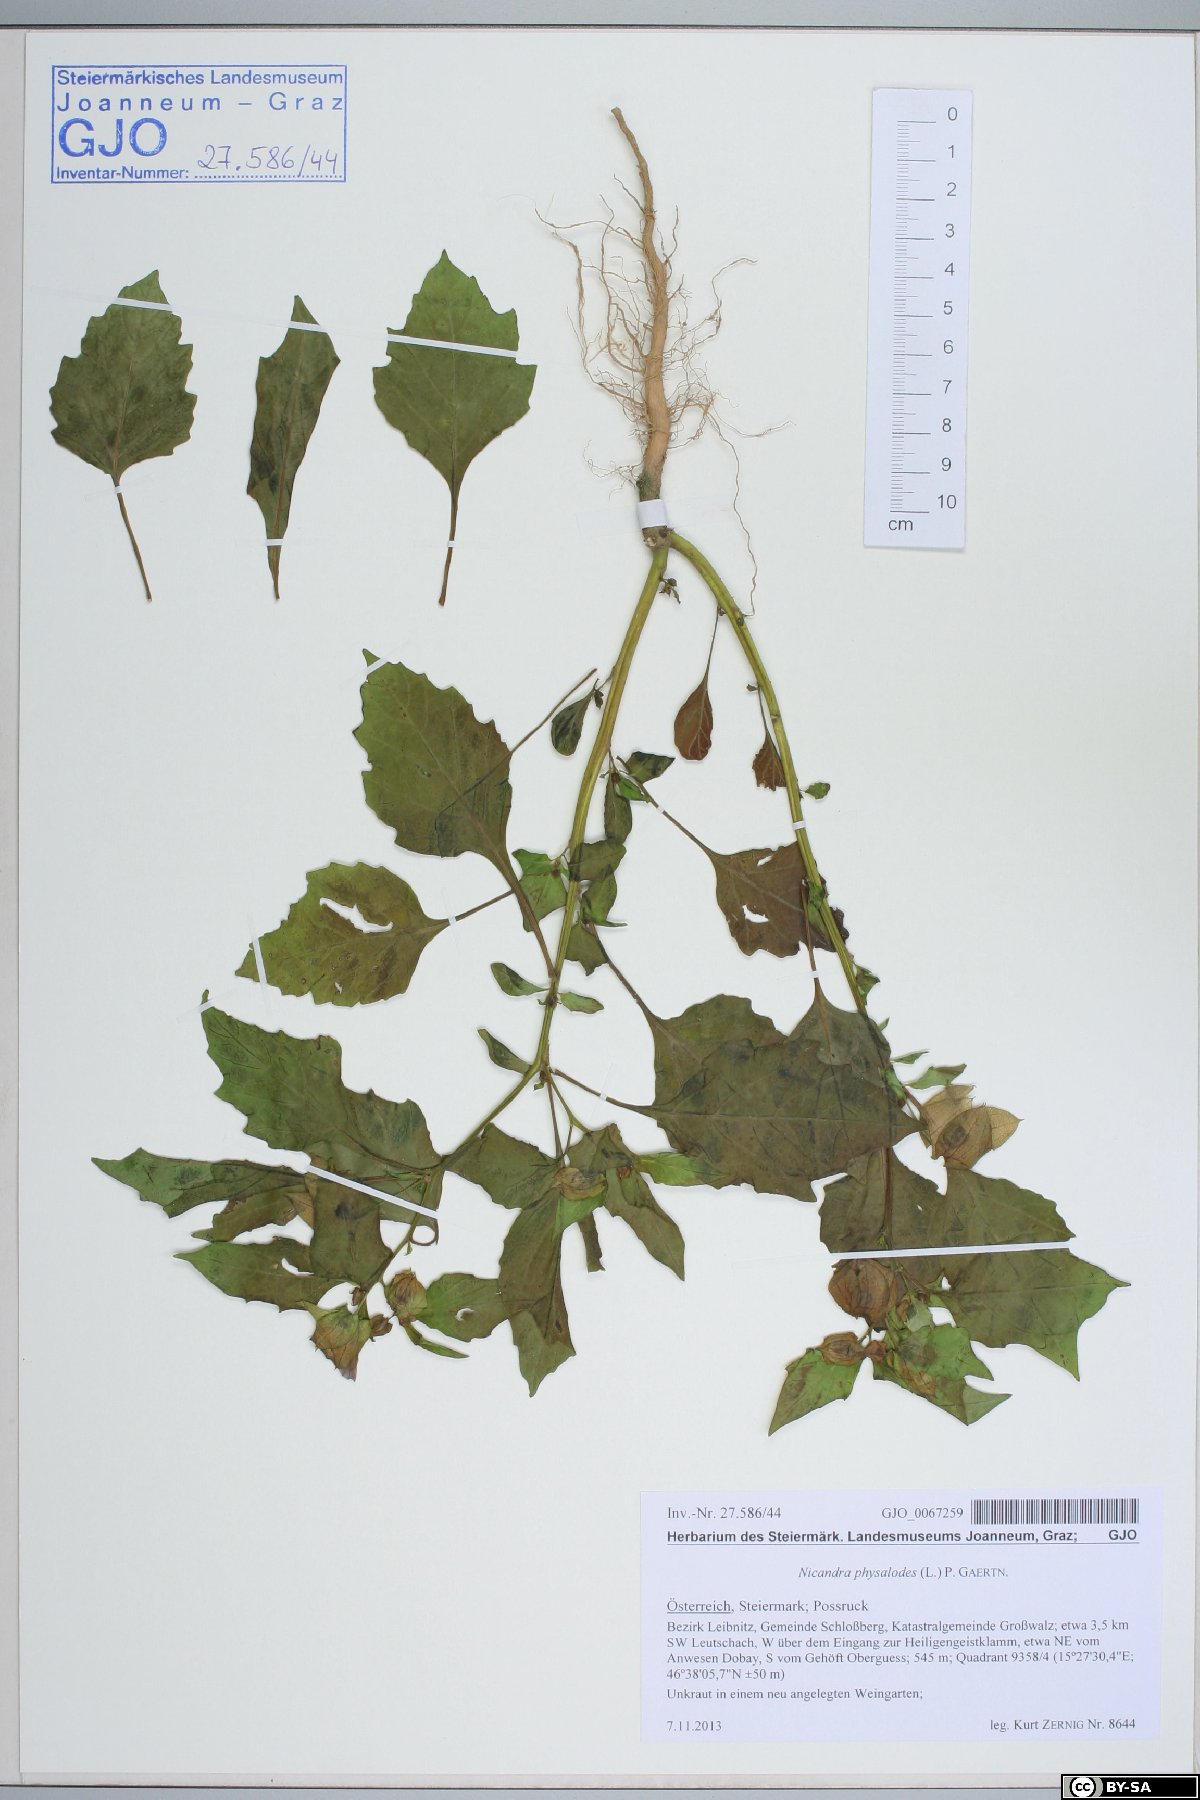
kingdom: Plantae
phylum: Tracheophyta
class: Magnoliopsida
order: Solanales
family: Solanaceae
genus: Nicandra
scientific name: Nicandra physalodes
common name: Apple-of-peru
